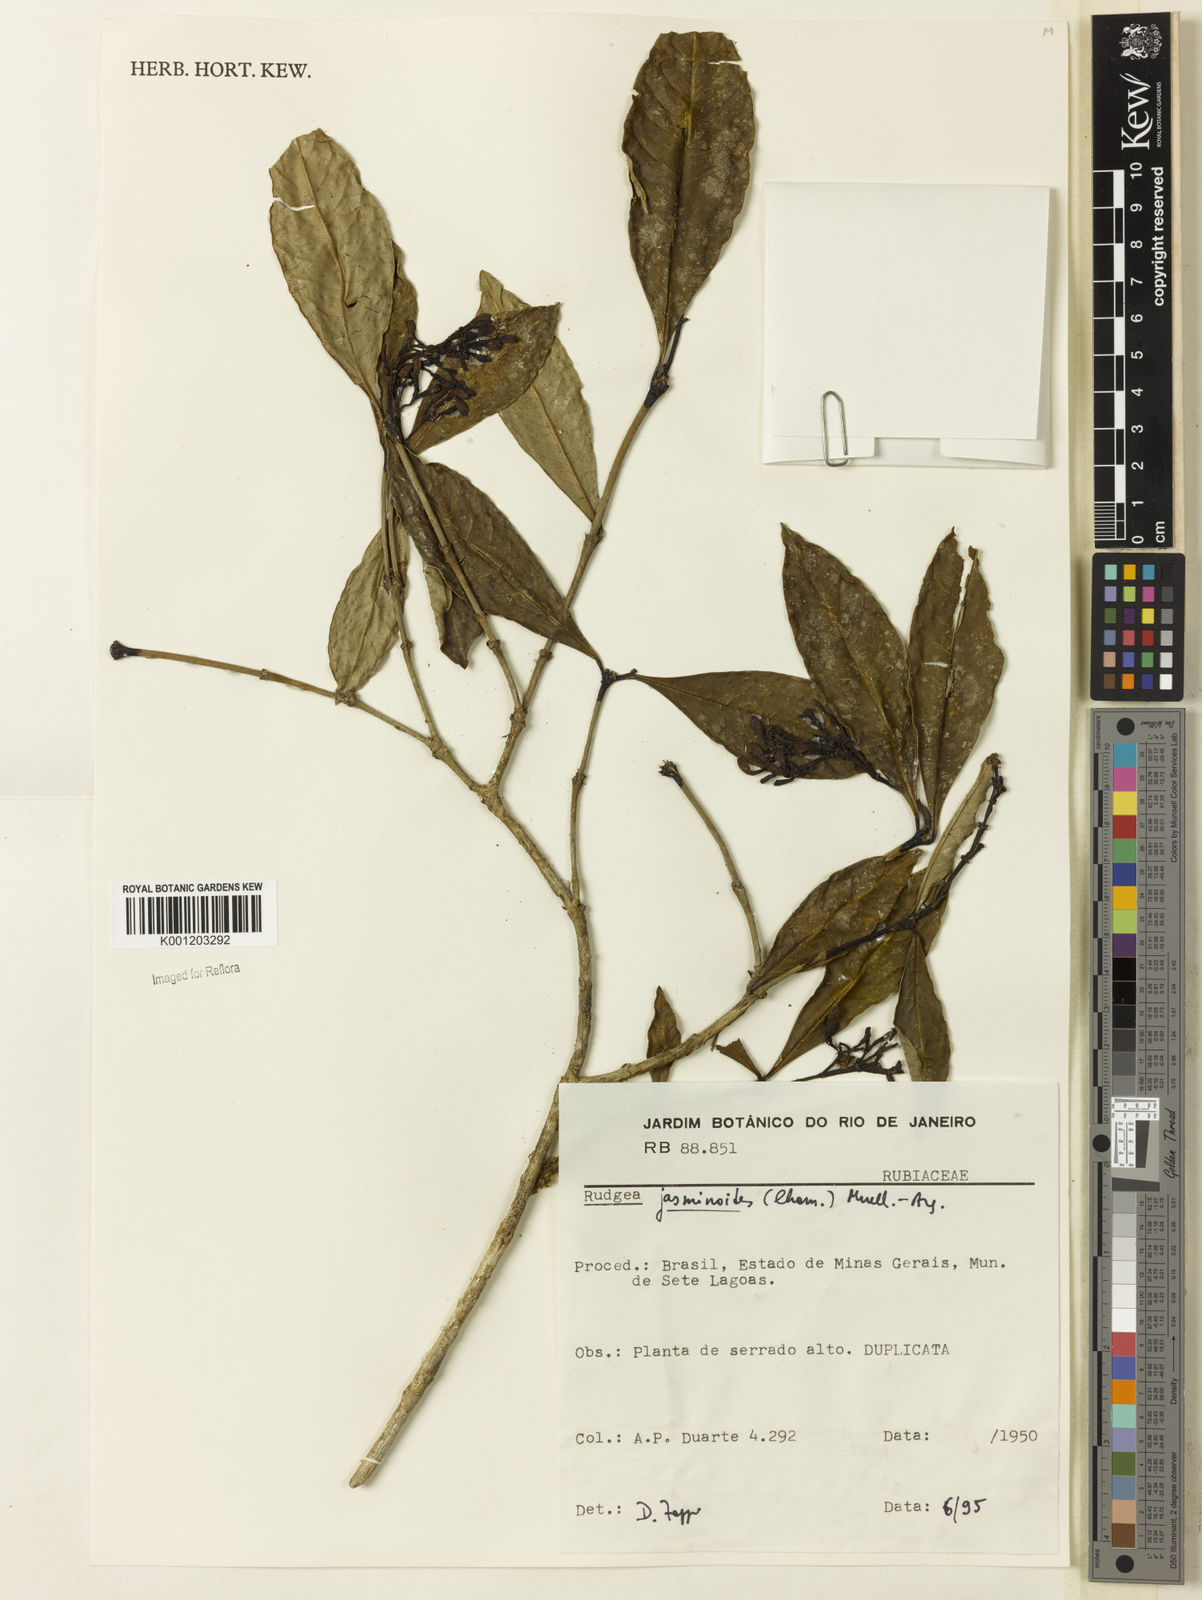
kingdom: Plantae
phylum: Tracheophyta
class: Magnoliopsida
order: Gentianales
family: Rubiaceae
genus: Rudgea
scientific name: Rudgea
